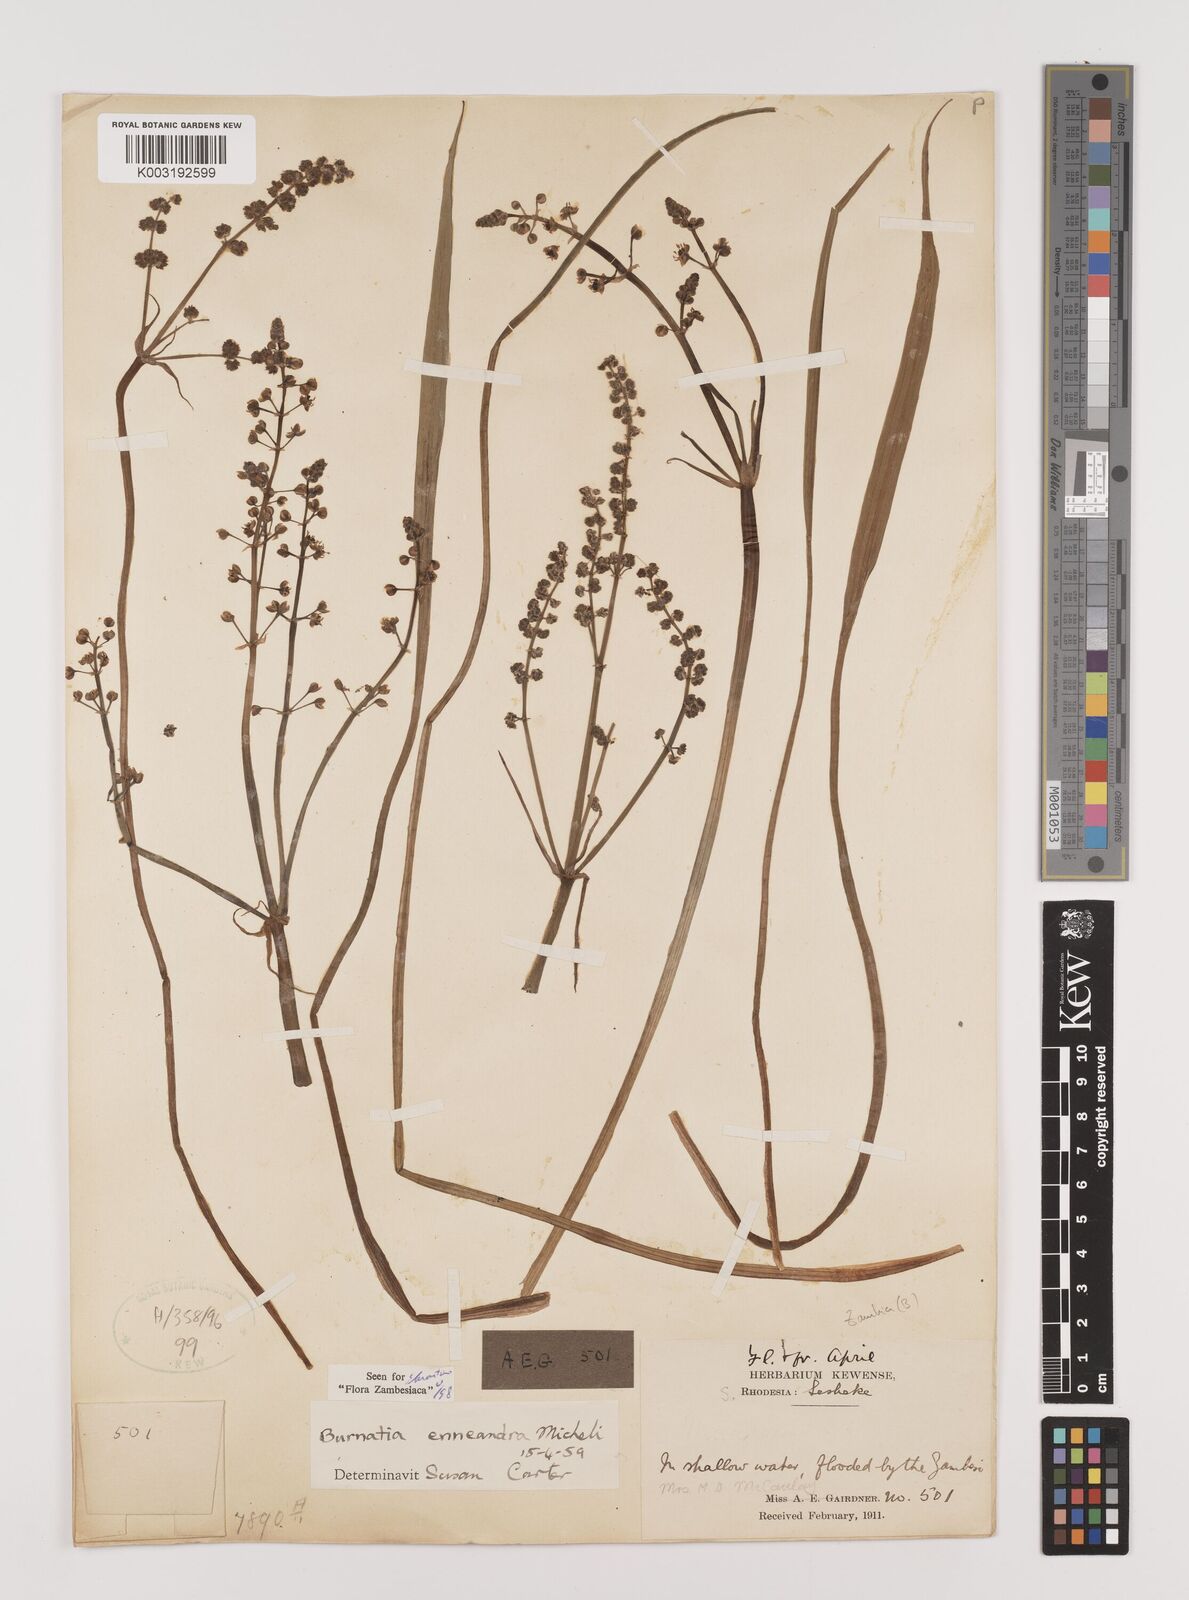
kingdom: Plantae
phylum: Tracheophyta
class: Liliopsida
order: Alismatales
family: Alismataceae
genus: Burnatia
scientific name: Burnatia enneandra
